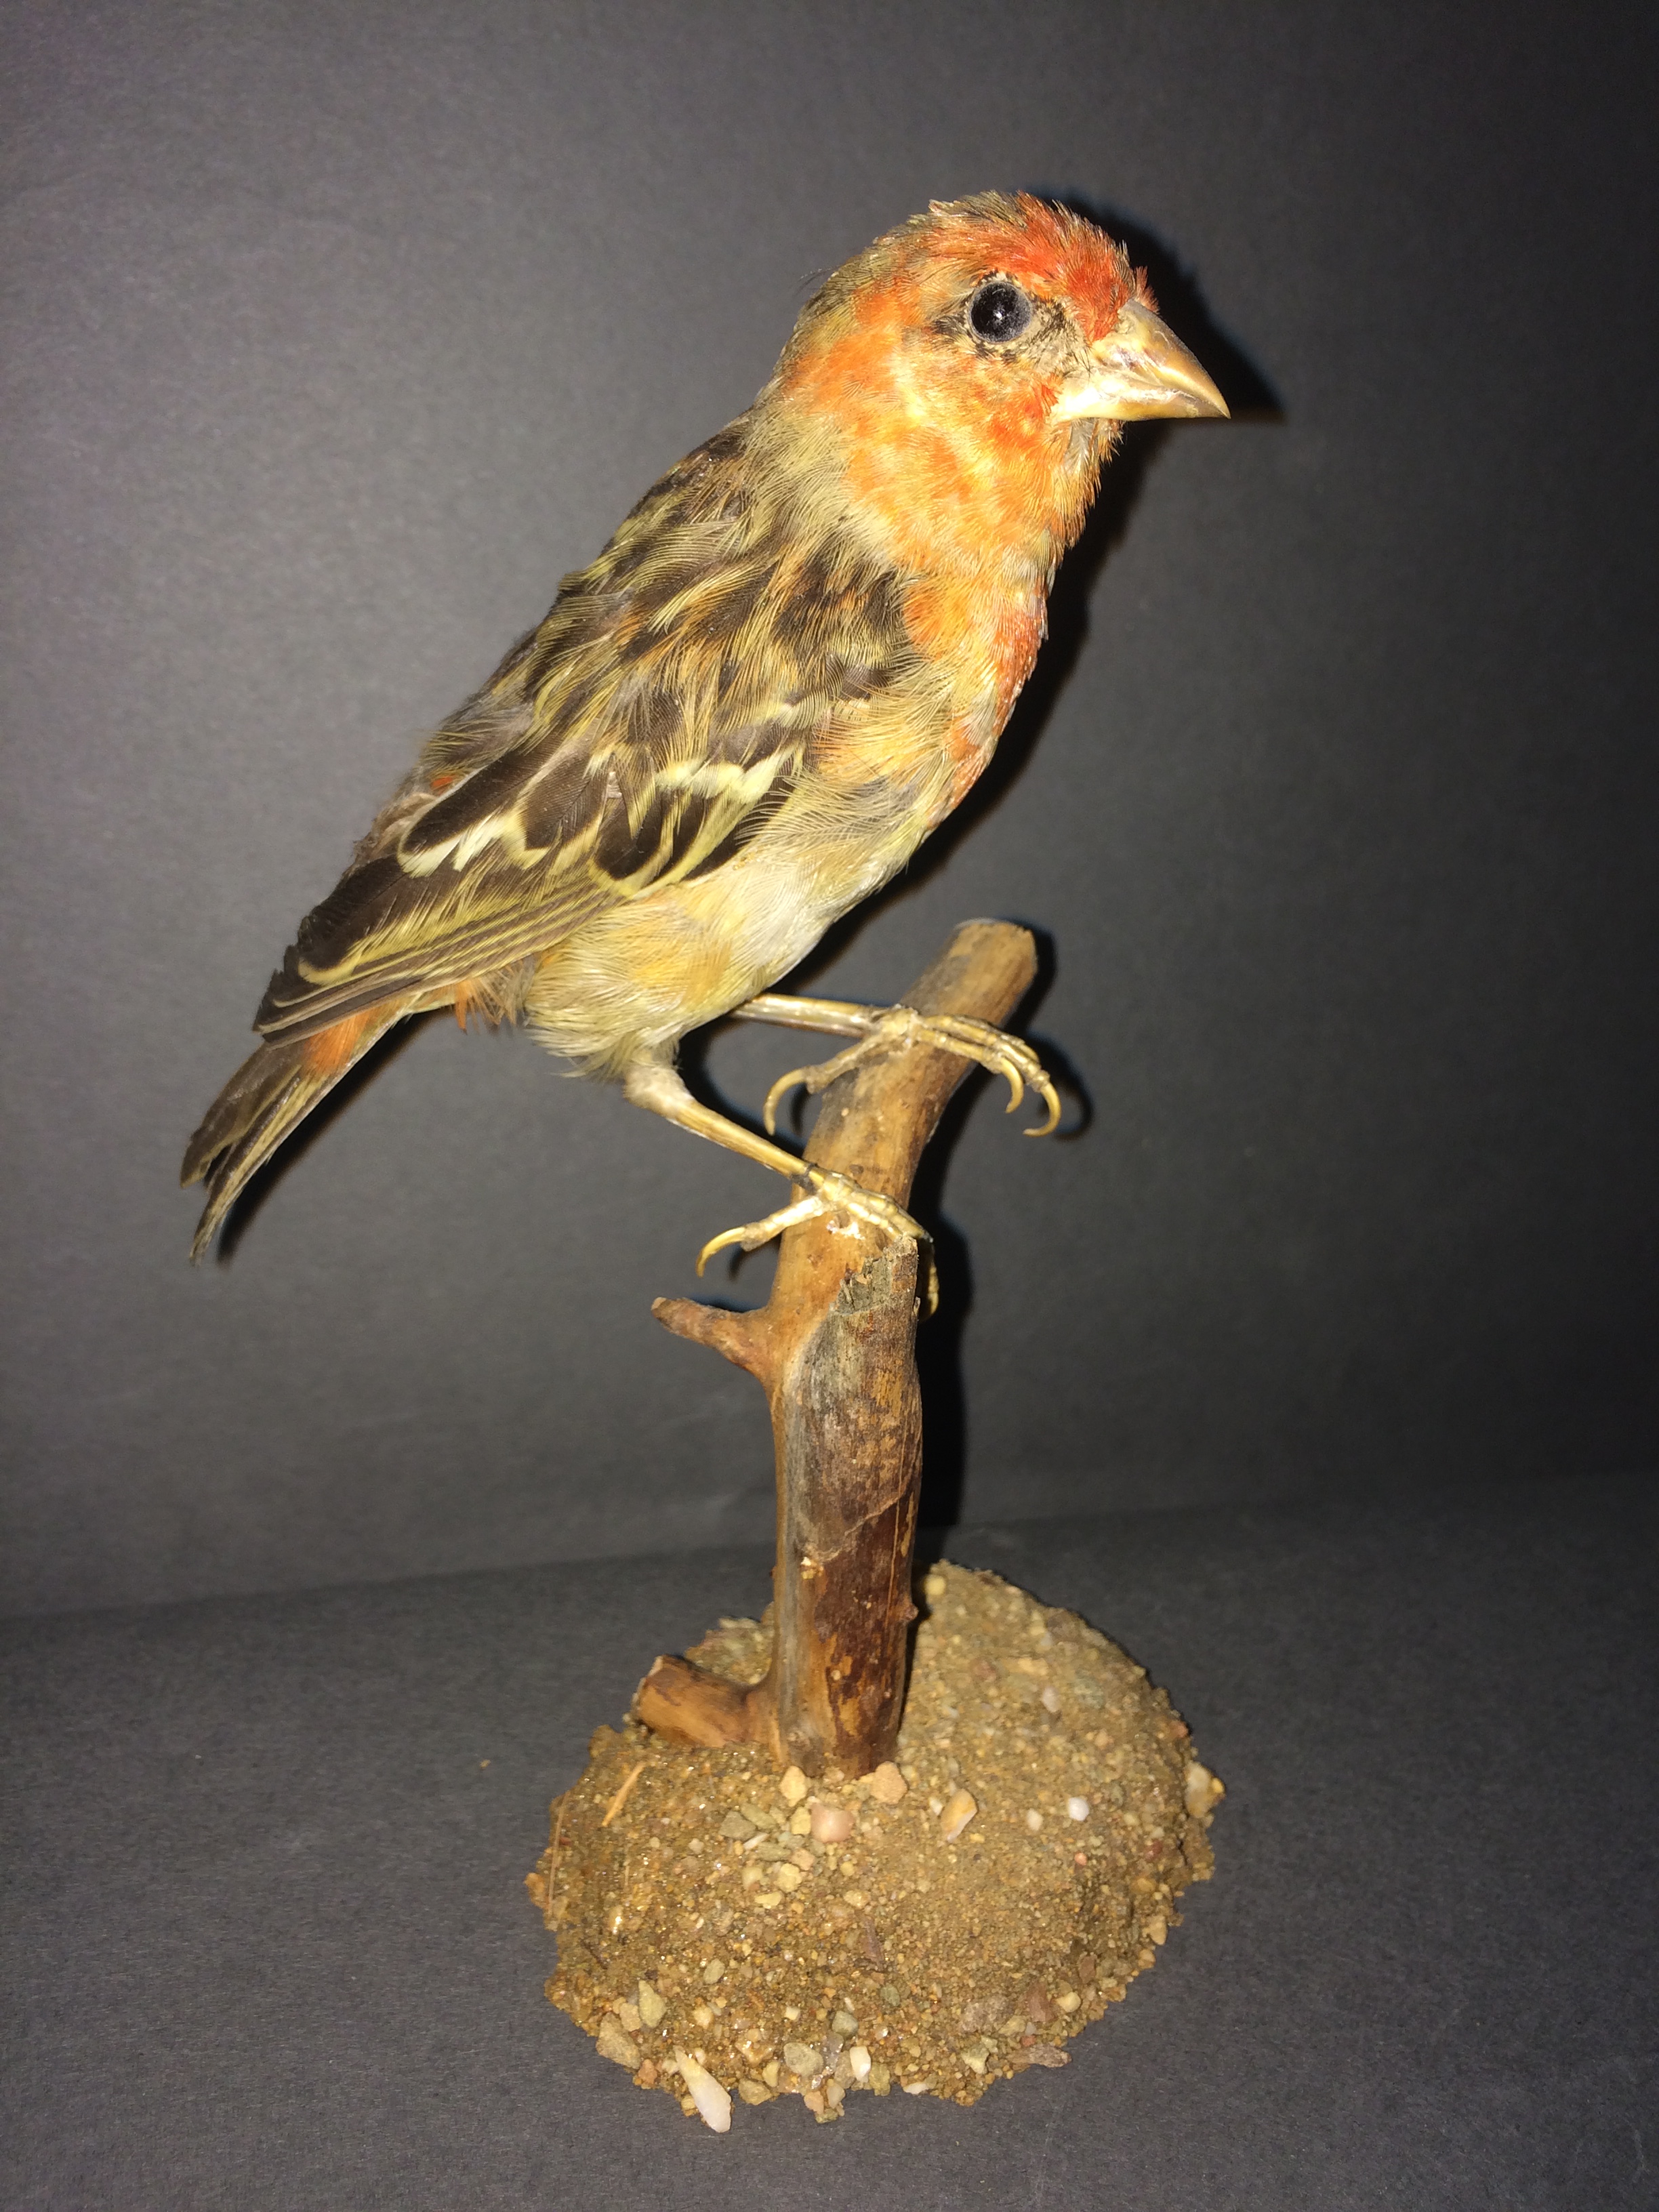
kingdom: Animalia
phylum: Chordata
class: Aves
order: Passeriformes
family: Fringillidae
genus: Carpodacus
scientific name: Carpodacus erythrinus
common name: Common rosefinch
